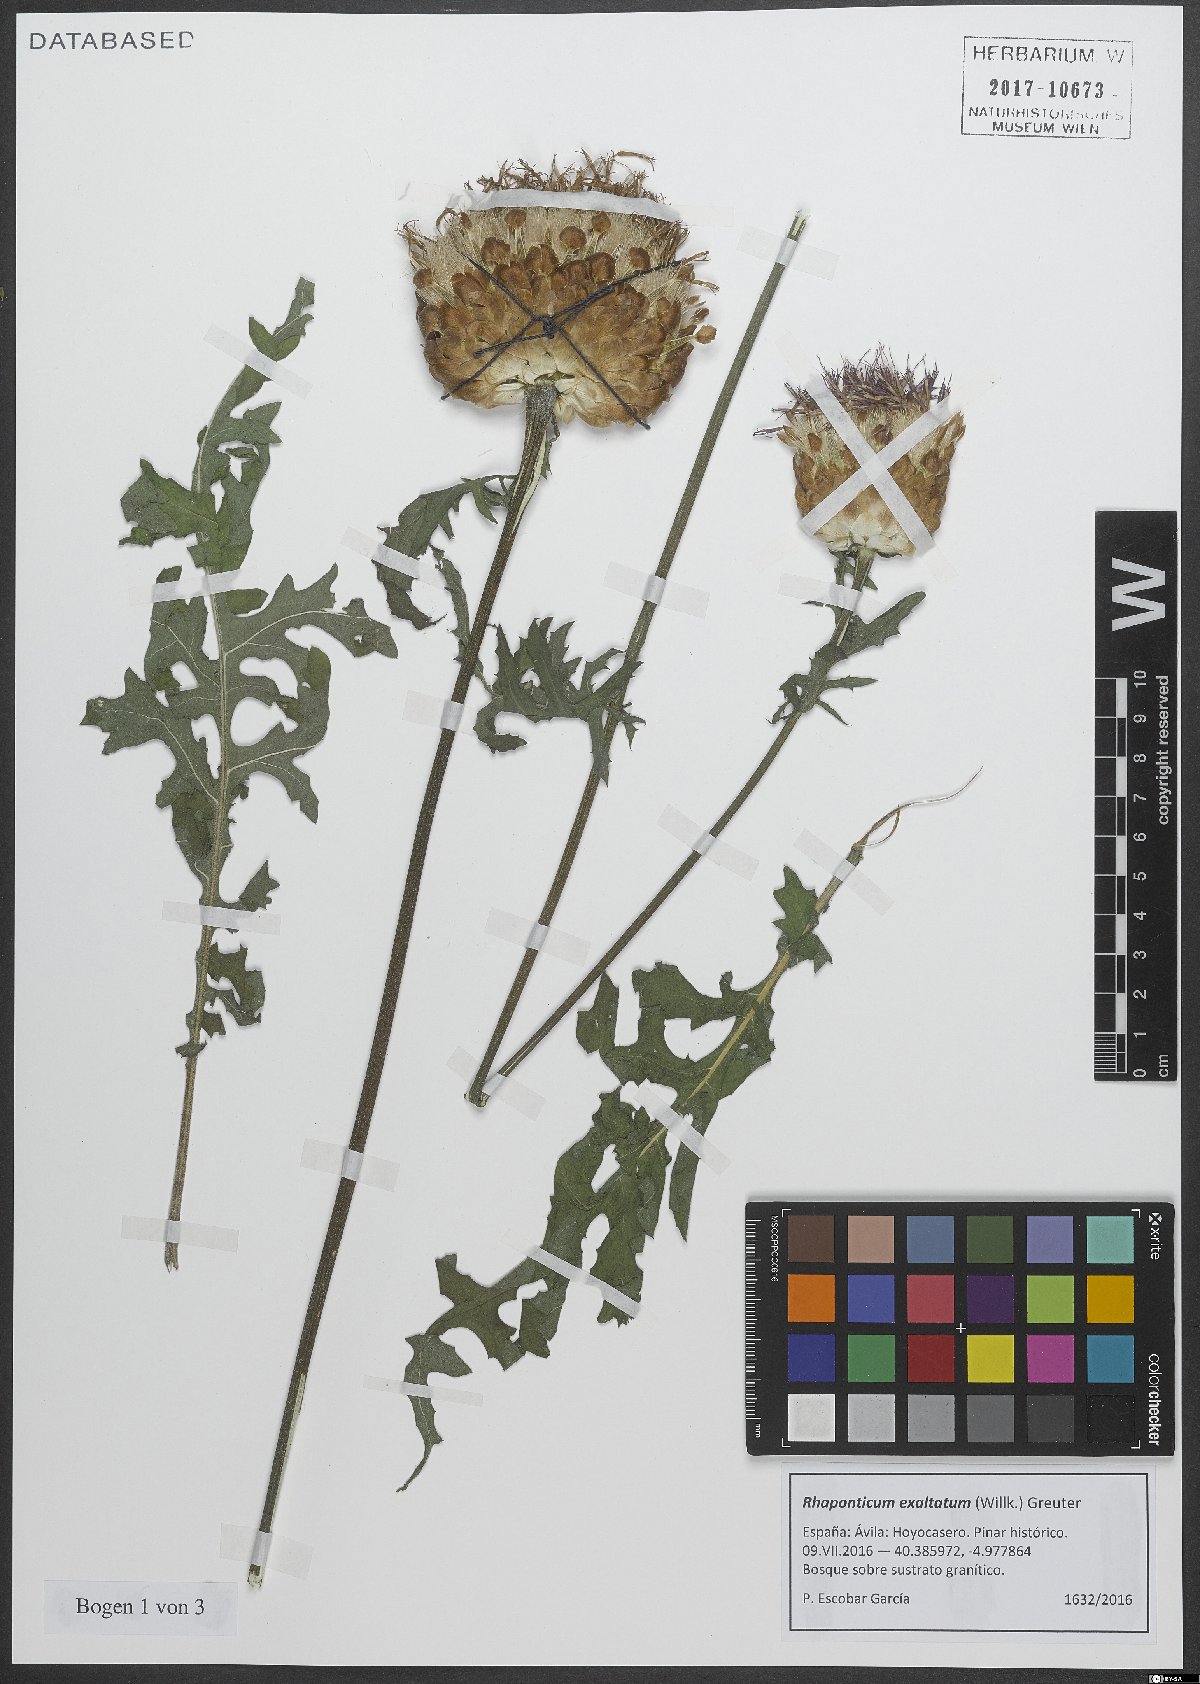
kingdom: Plantae
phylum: Tracheophyta
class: Magnoliopsida
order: Asterales
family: Asteraceae
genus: Leuzea
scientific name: Leuzea exaltata
